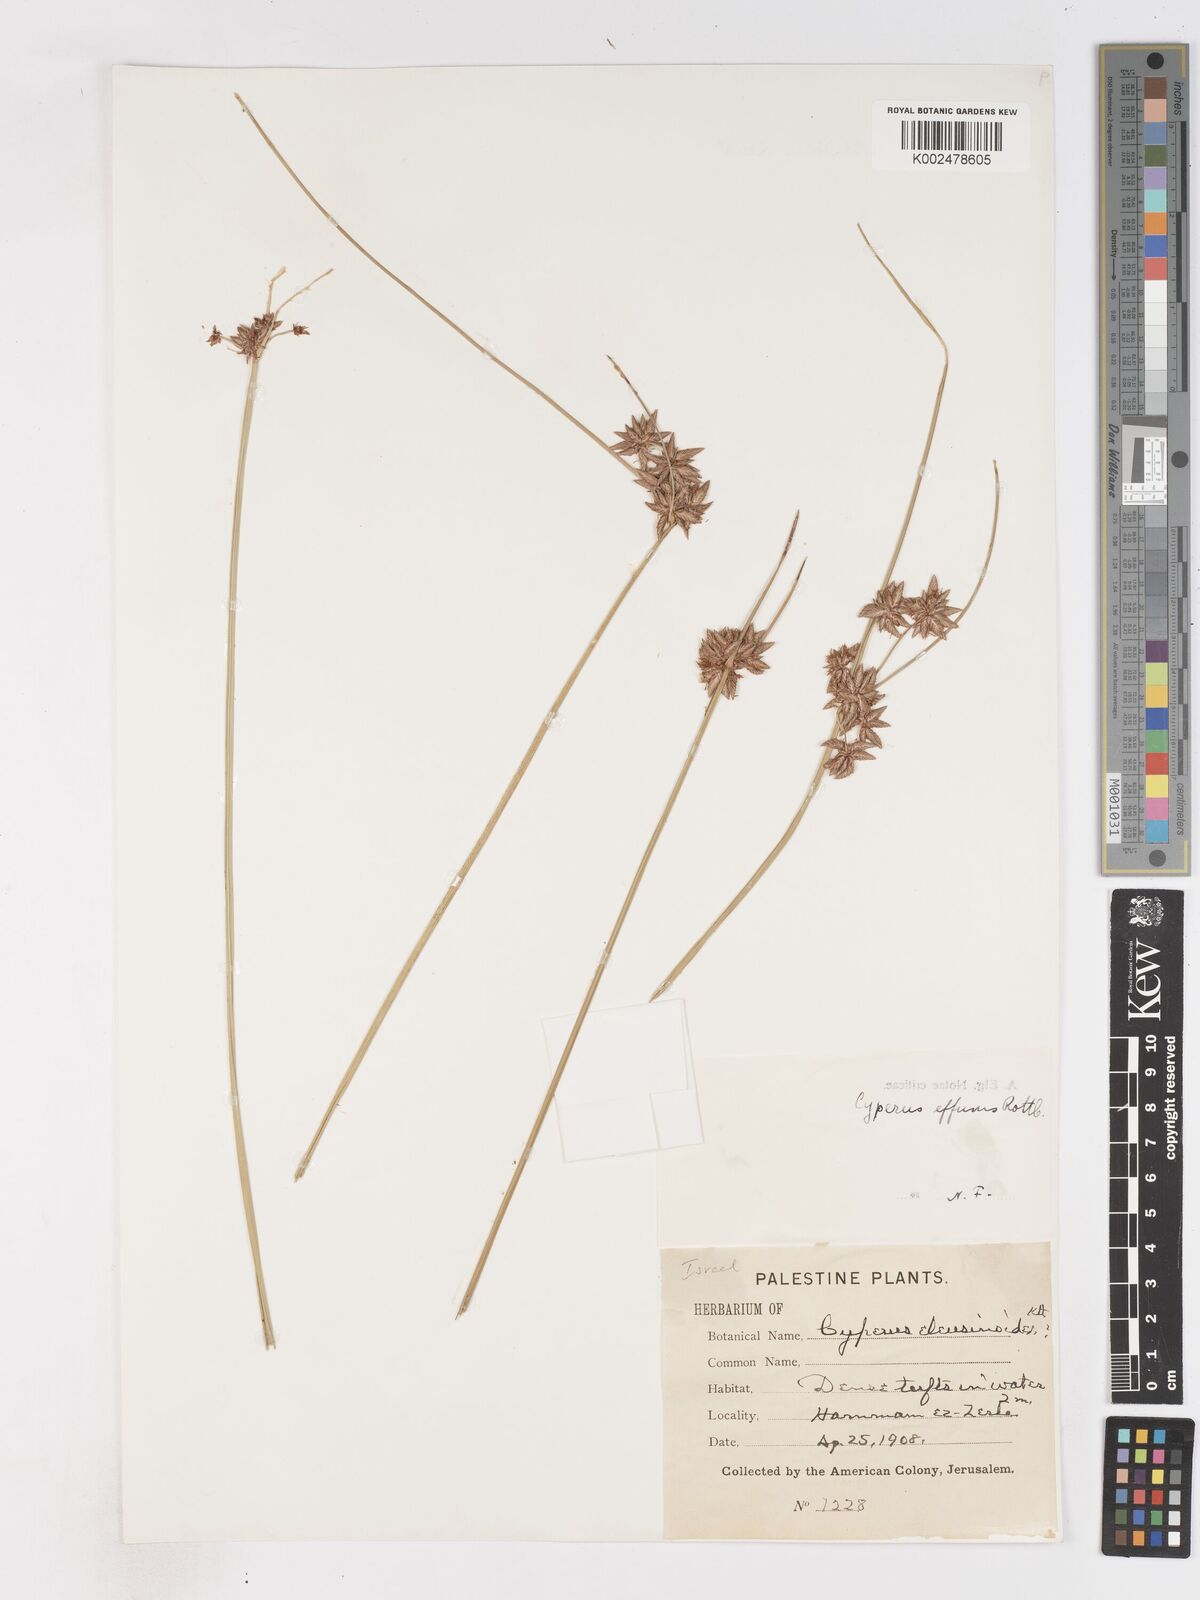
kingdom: Plantae
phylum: Tracheophyta
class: Liliopsida
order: Poales
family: Cyperaceae
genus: Cyperus
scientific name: Cyperus conglomeratus
